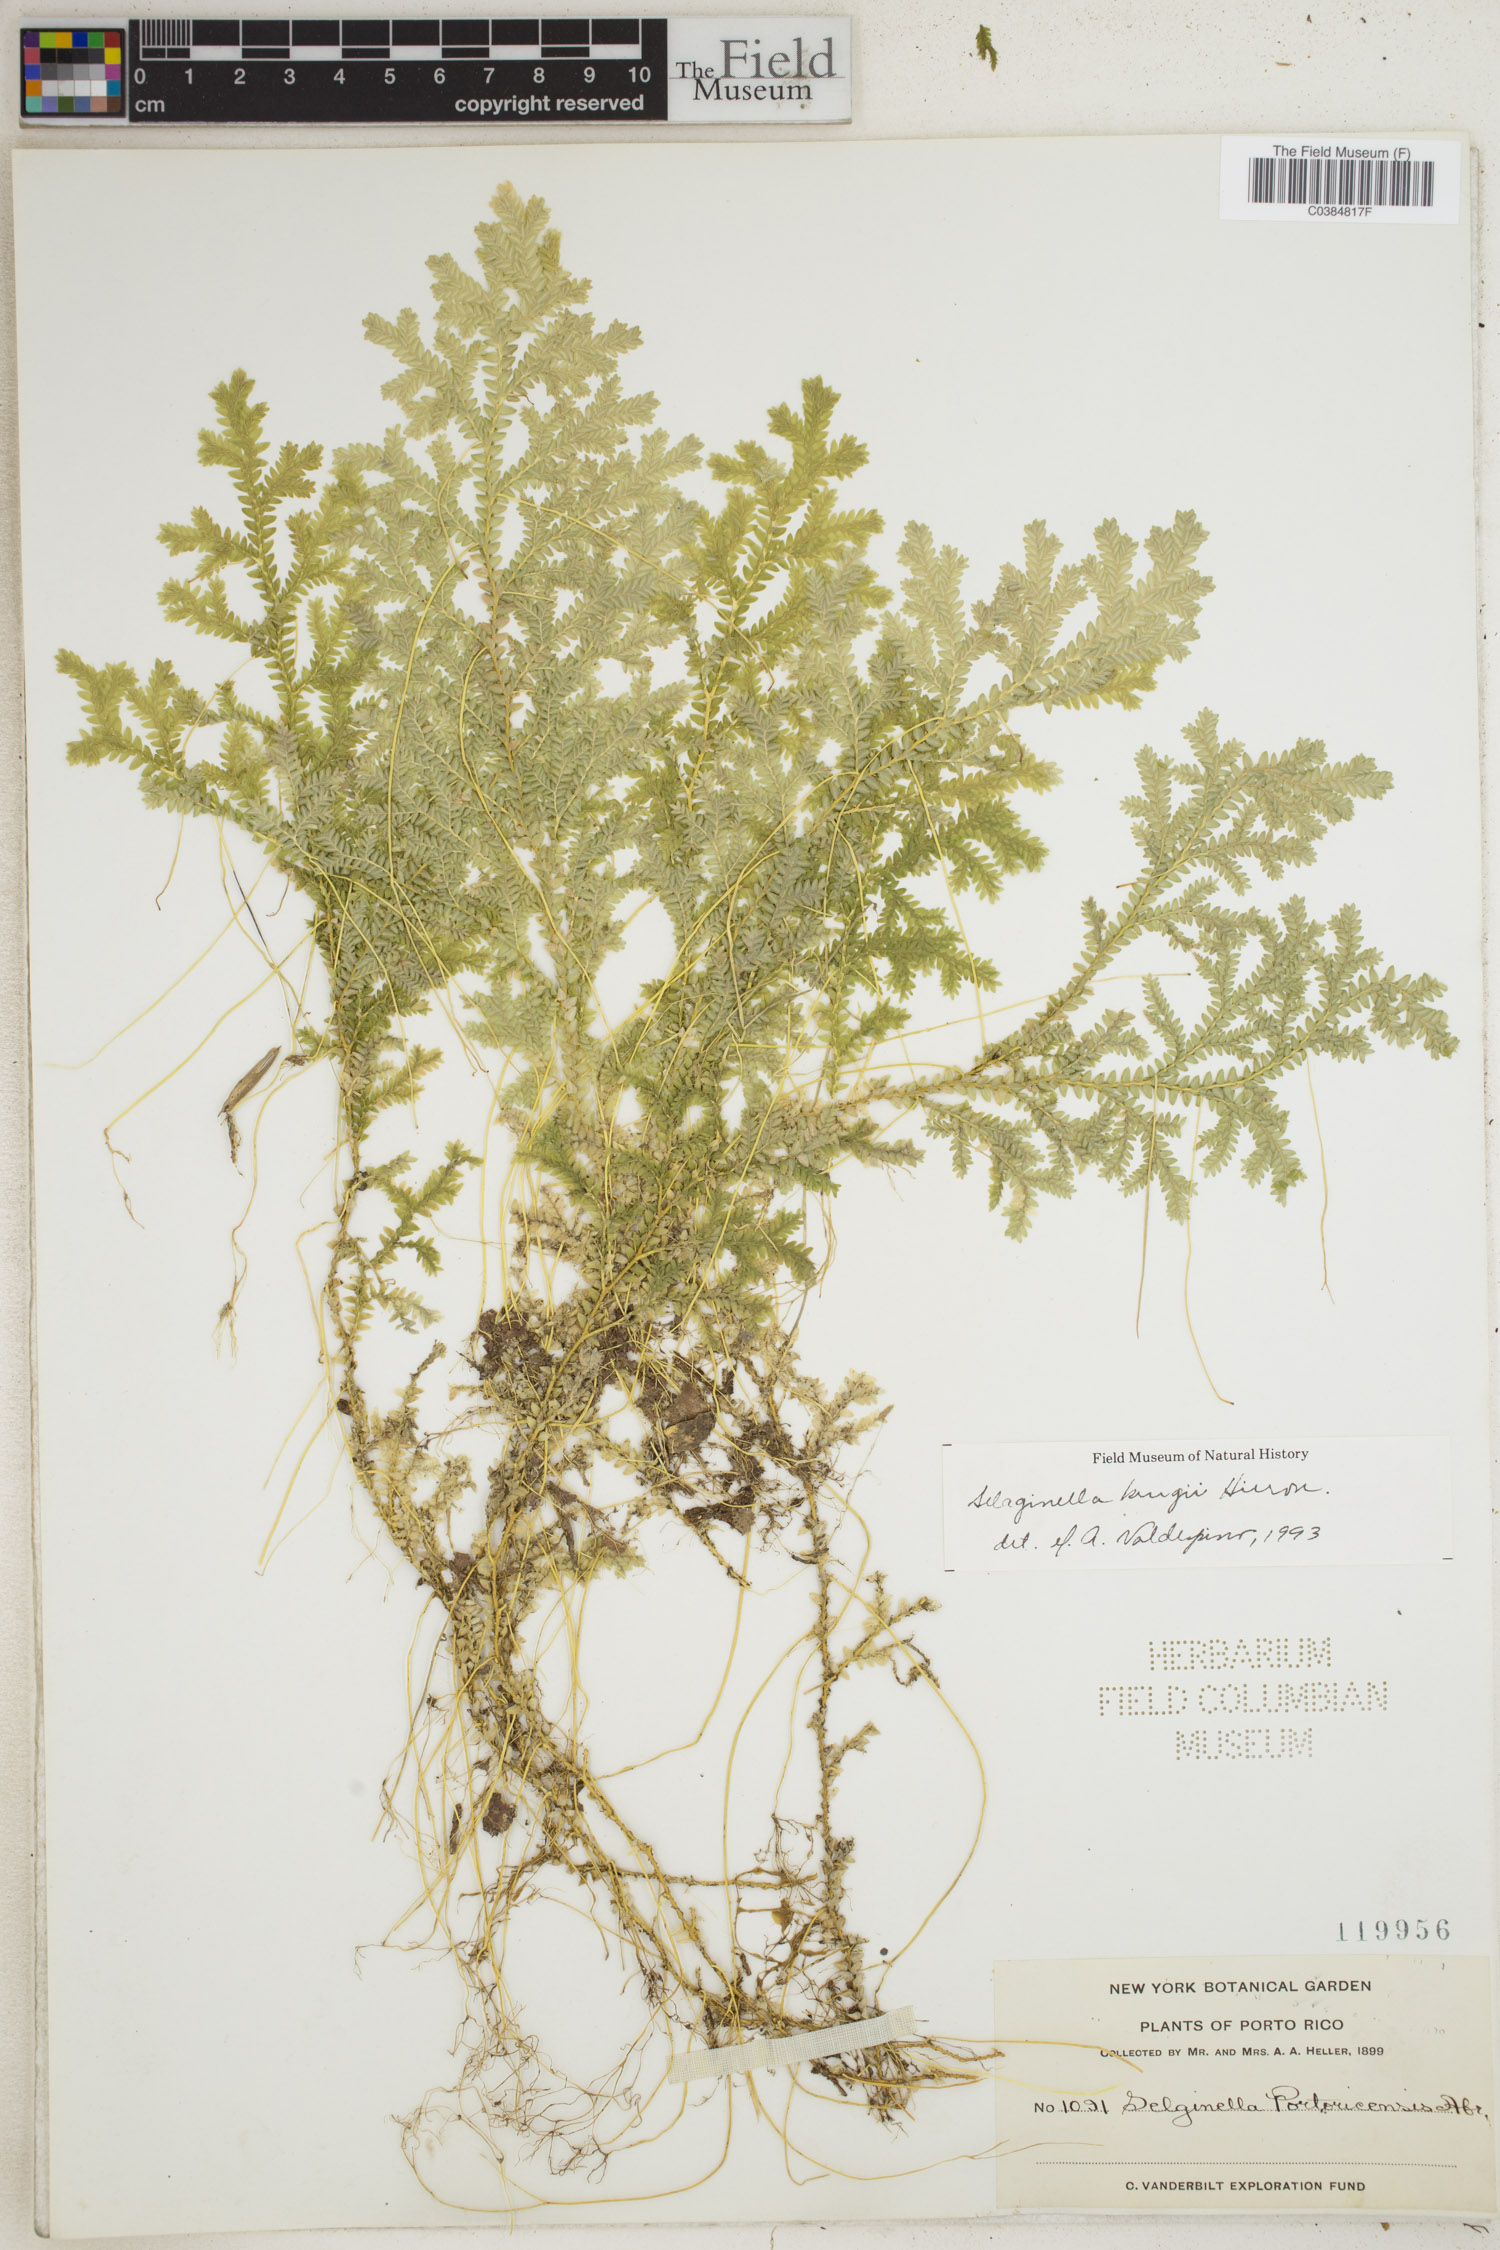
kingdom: Plantae
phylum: Tracheophyta
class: Lycopodiopsida
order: Selaginellales
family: Selaginellaceae
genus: Selaginella
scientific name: Selaginella krugii
